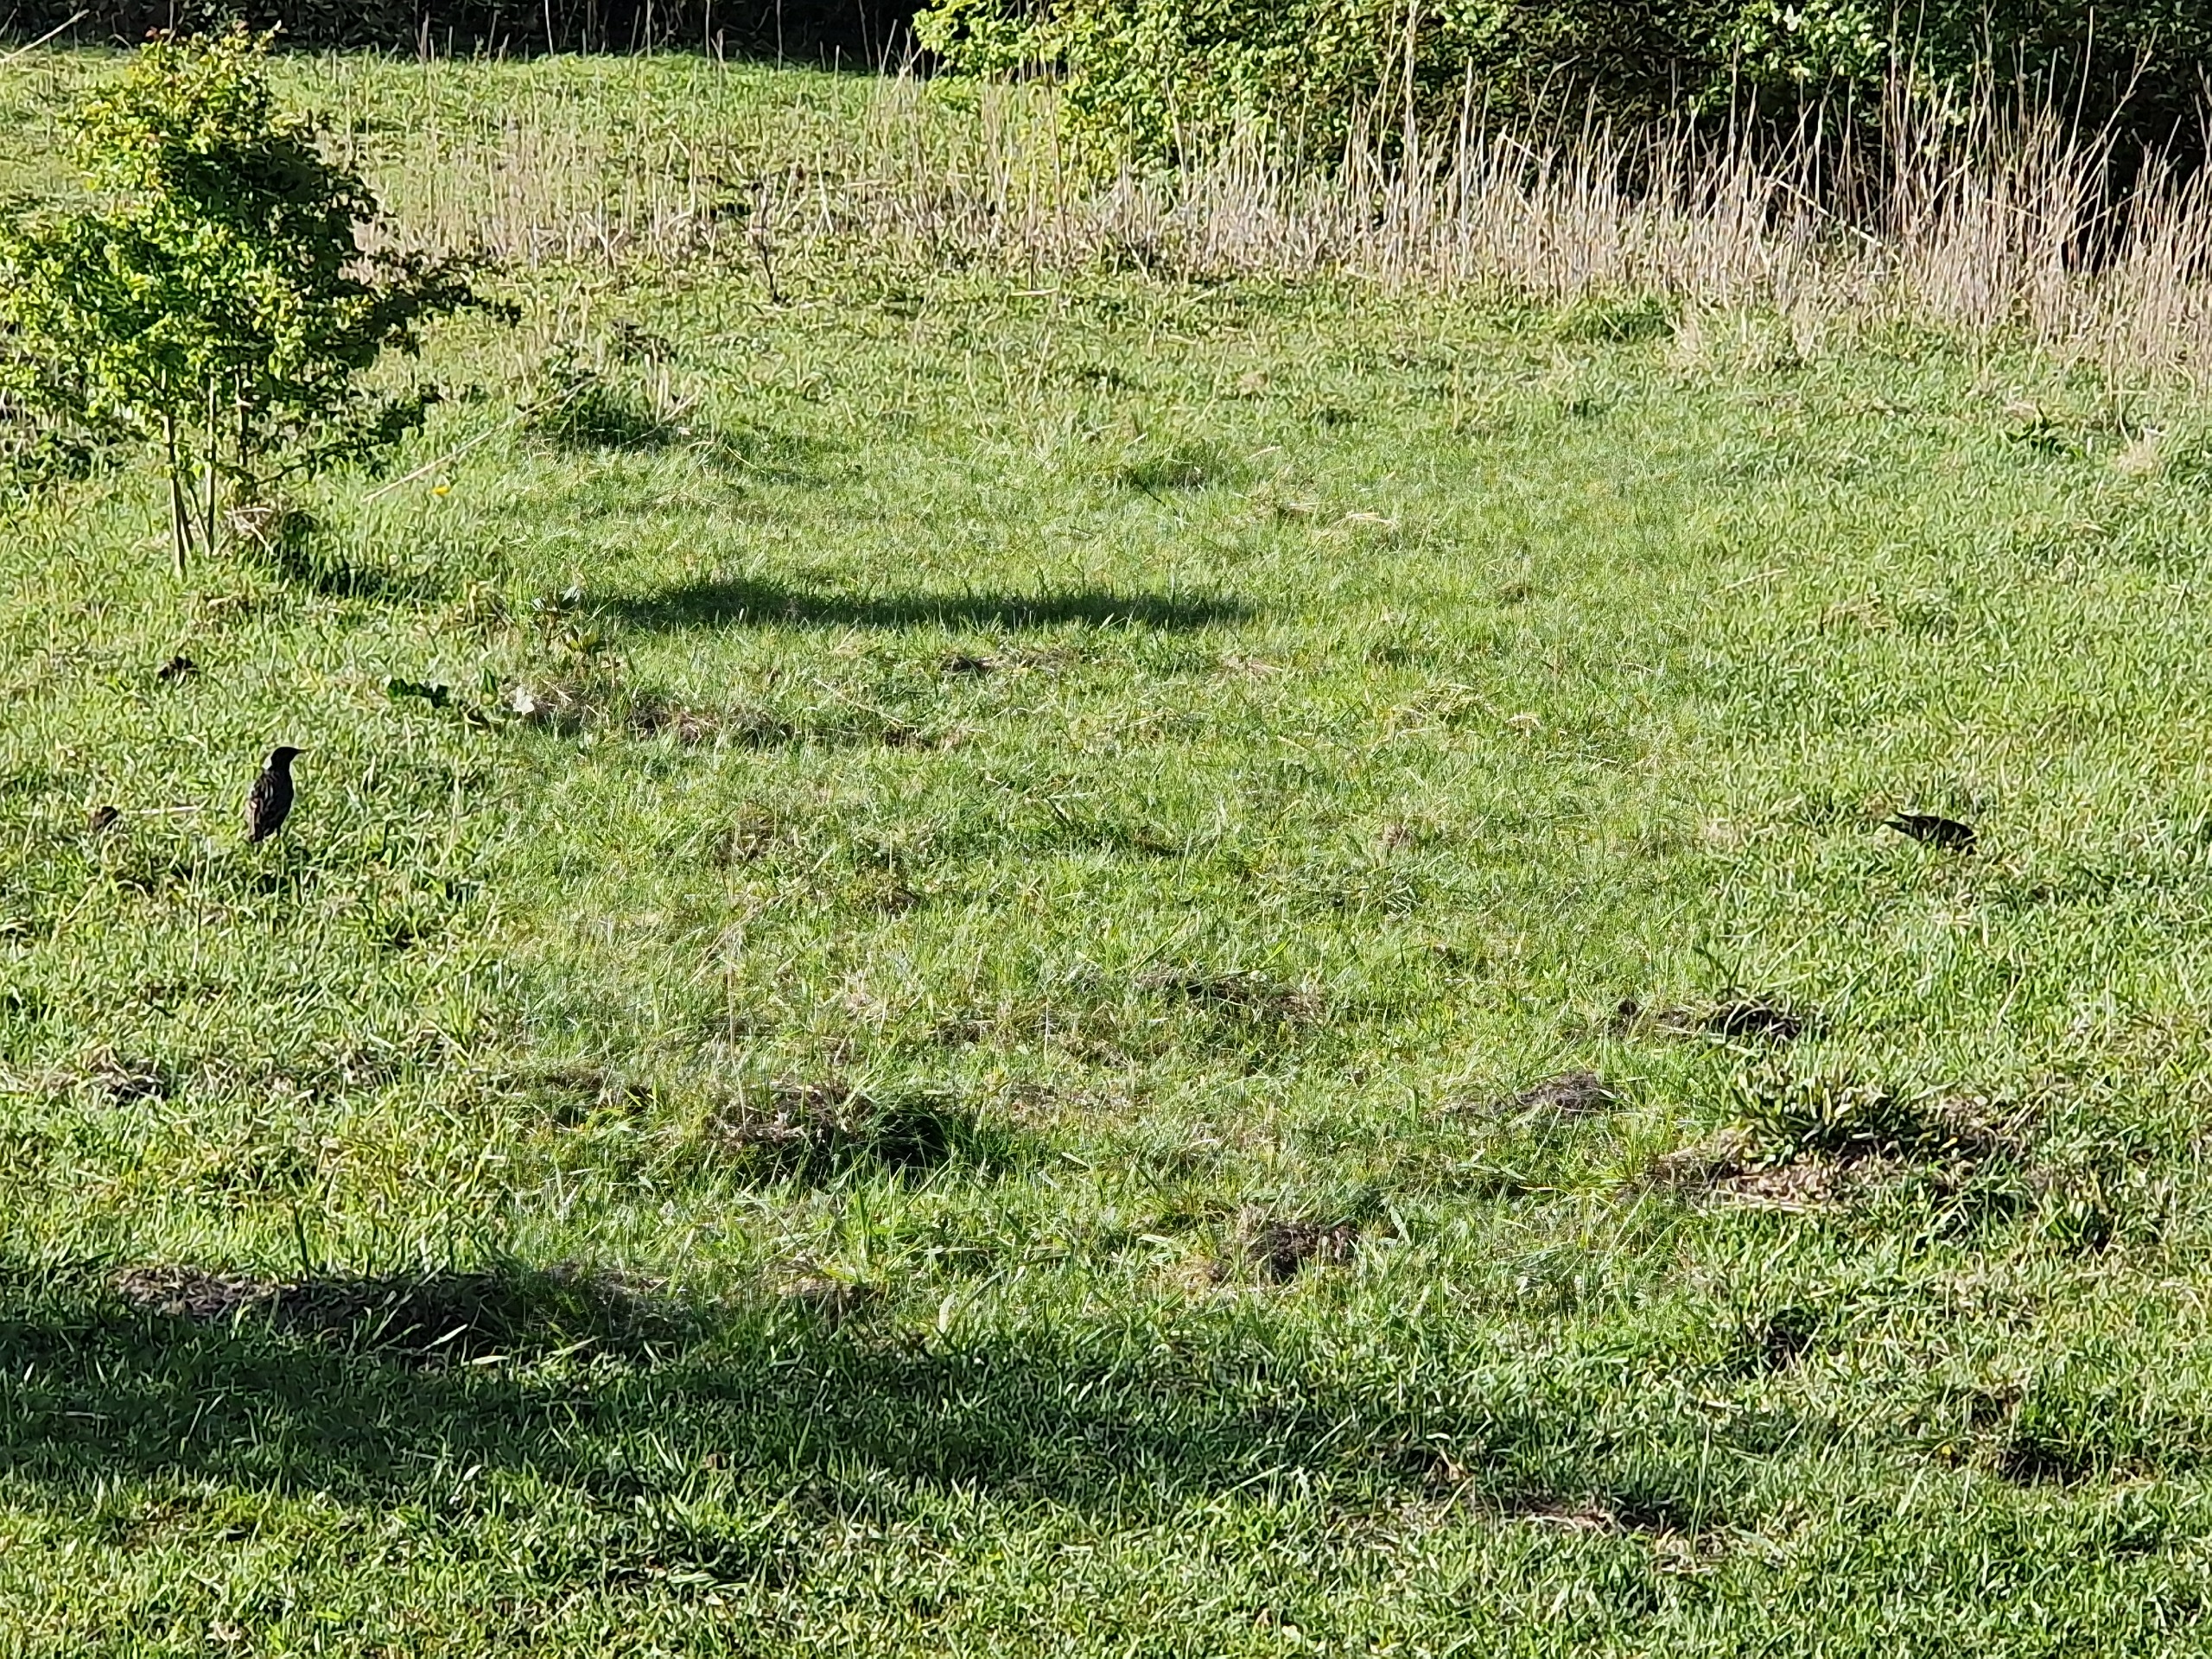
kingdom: Animalia
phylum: Chordata
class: Aves
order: Passeriformes
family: Sturnidae
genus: Sturnus
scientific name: Sturnus vulgaris
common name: Stær
